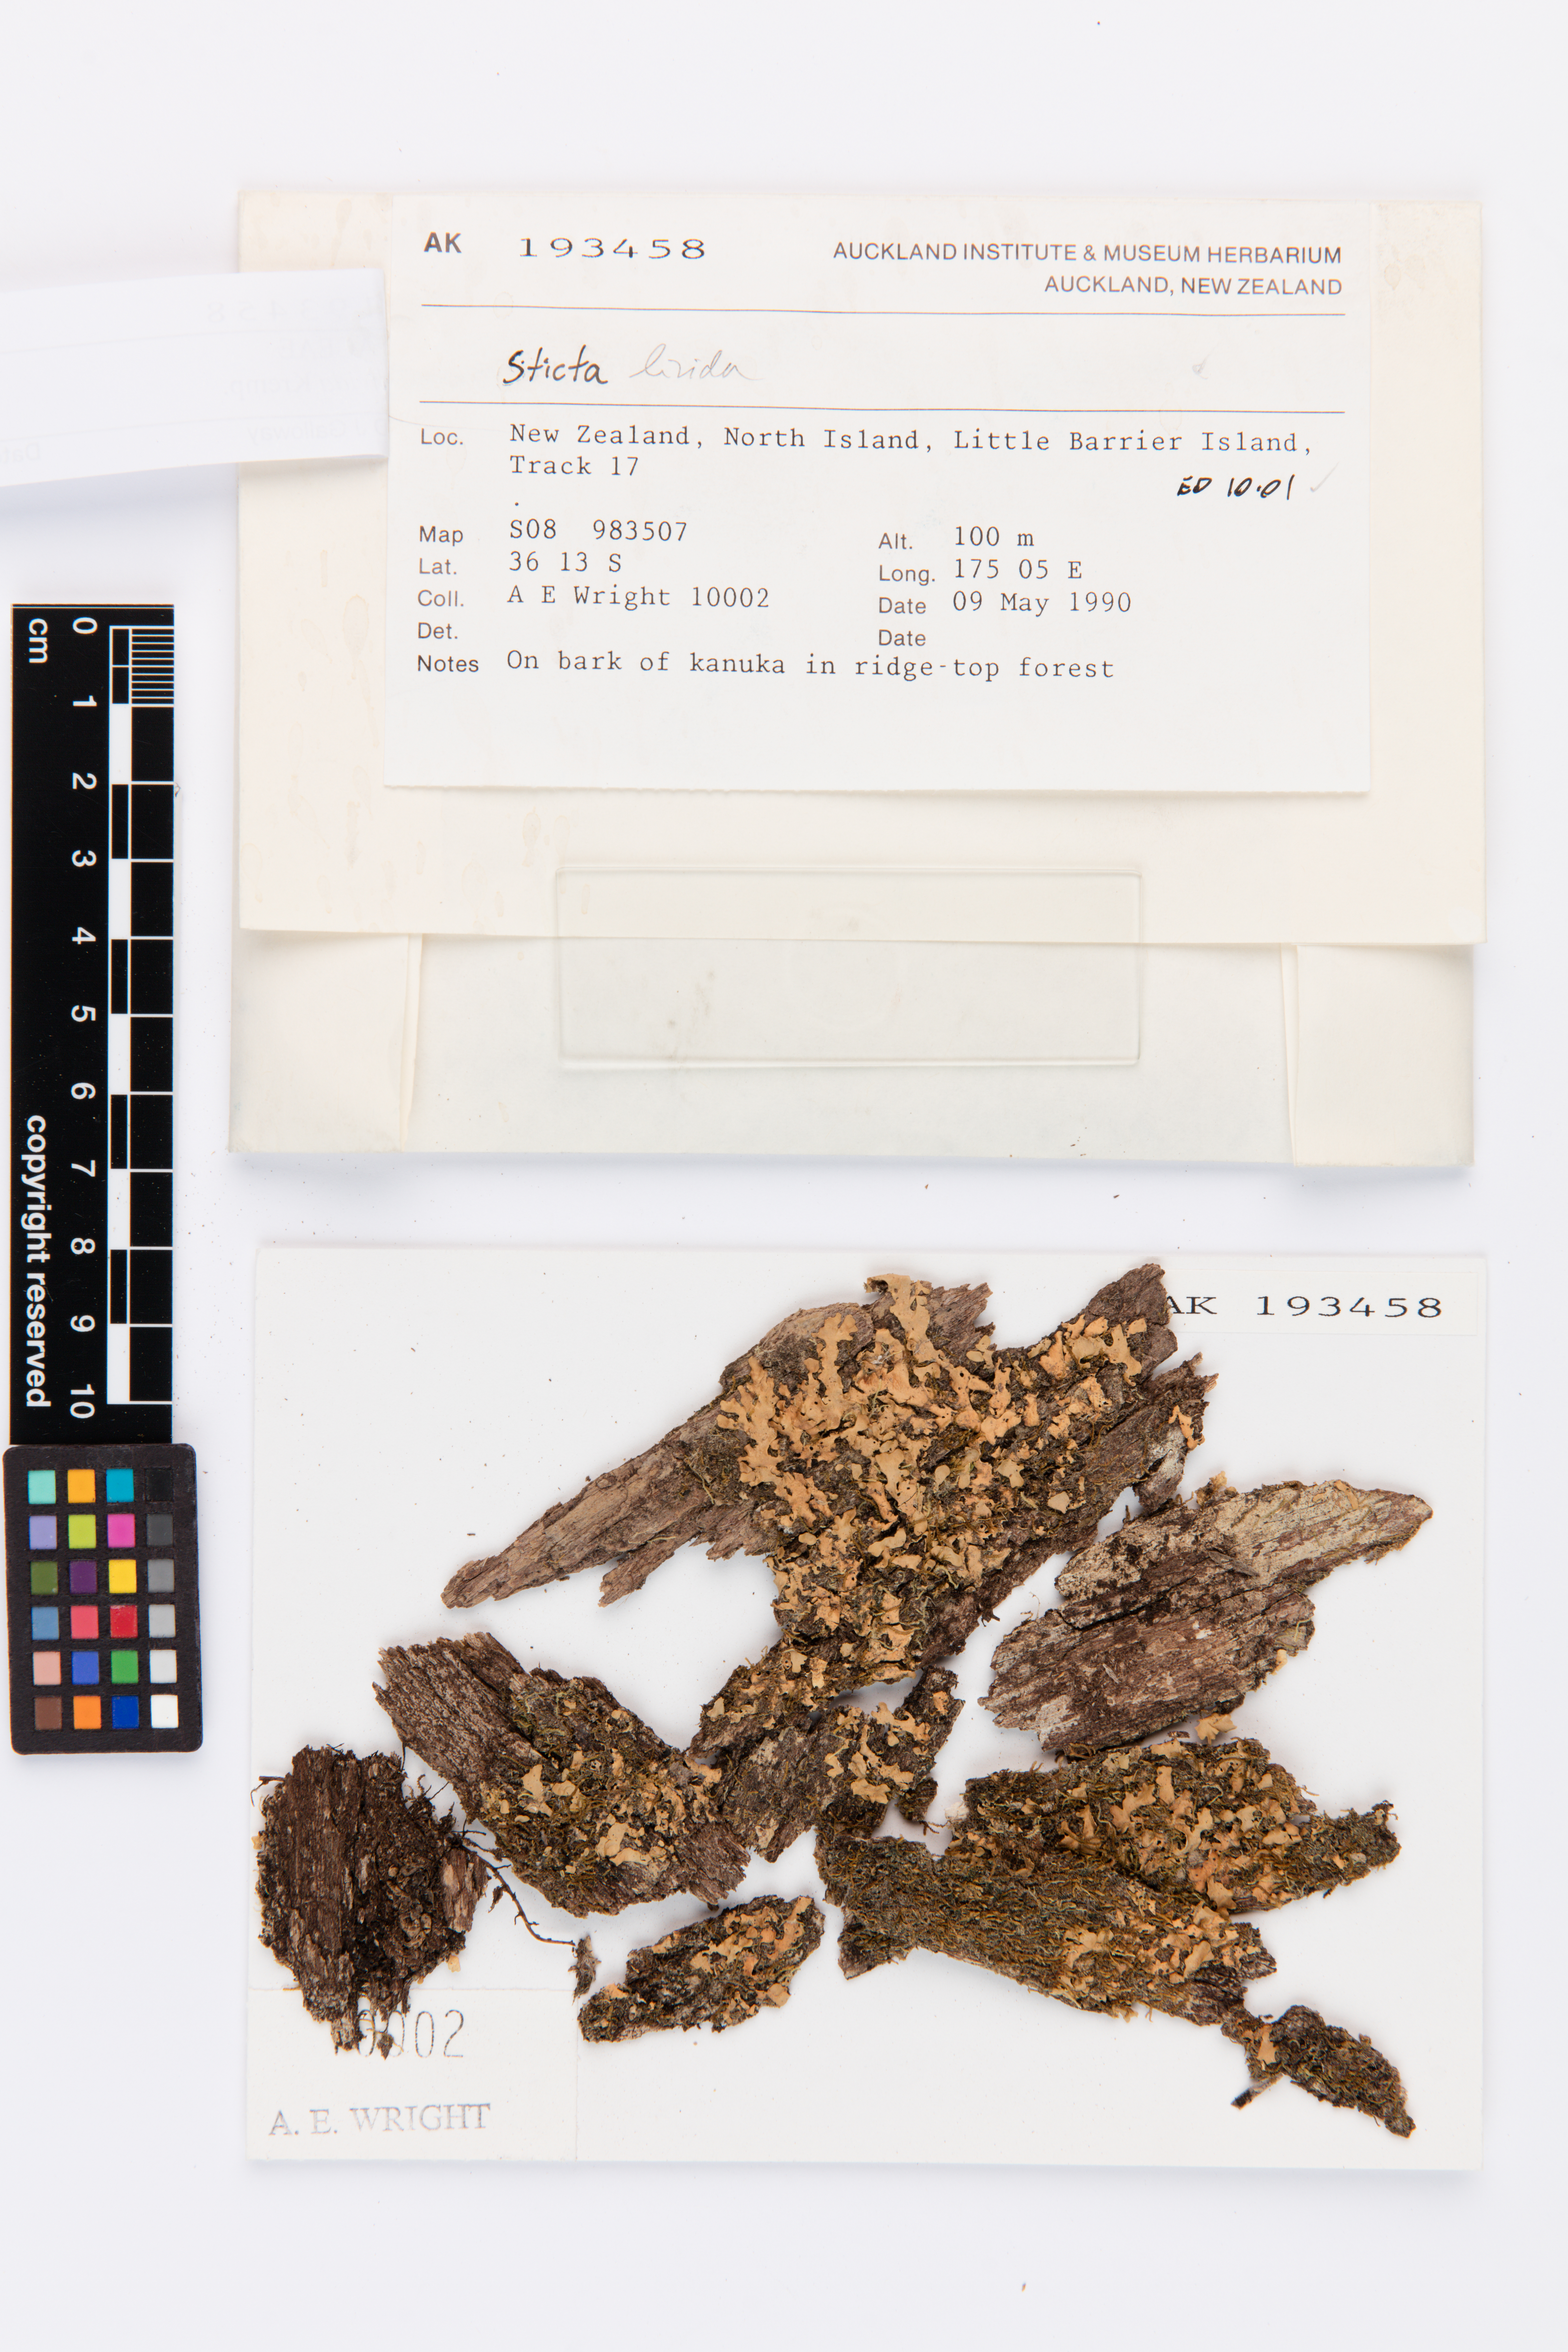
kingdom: Fungi
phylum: Ascomycota
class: Lecanoromycetes
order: Peltigerales
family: Lobariaceae
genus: Lobaria
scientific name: Lobaria linita
